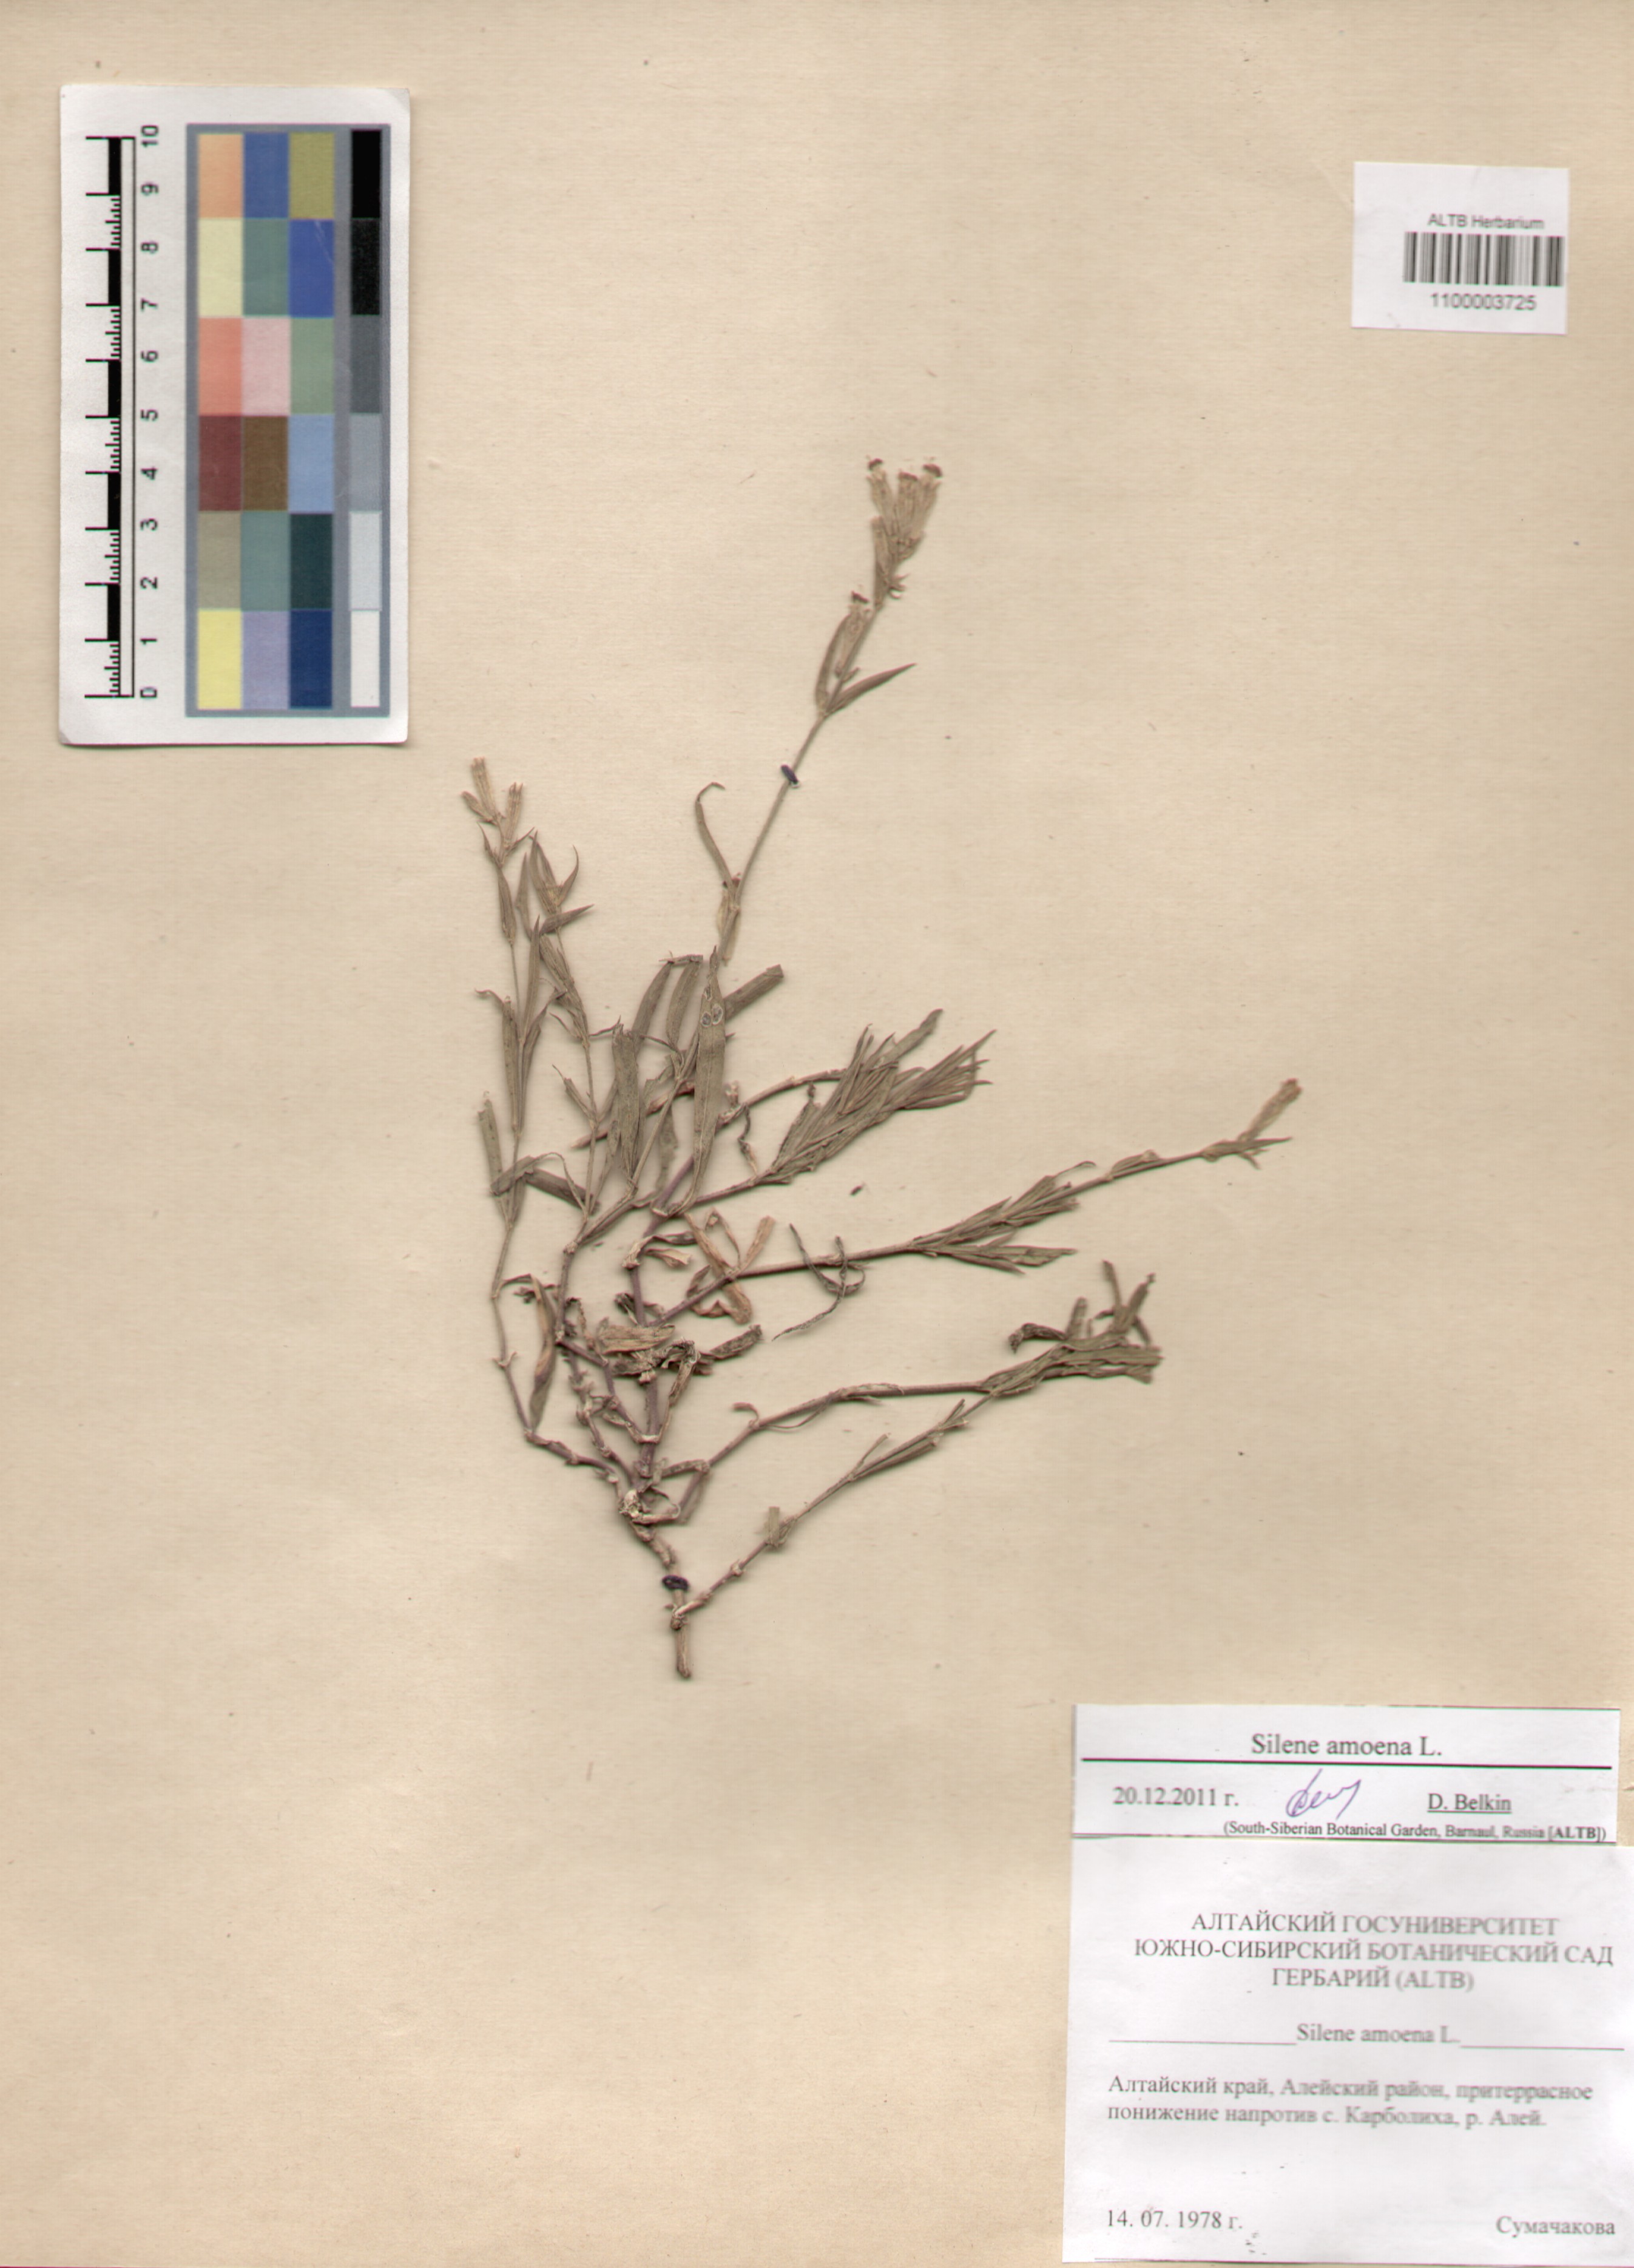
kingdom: Plantae
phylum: Tracheophyta
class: Magnoliopsida
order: Caryophyllales
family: Caryophyllaceae
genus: Silene
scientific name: Silene amoena
